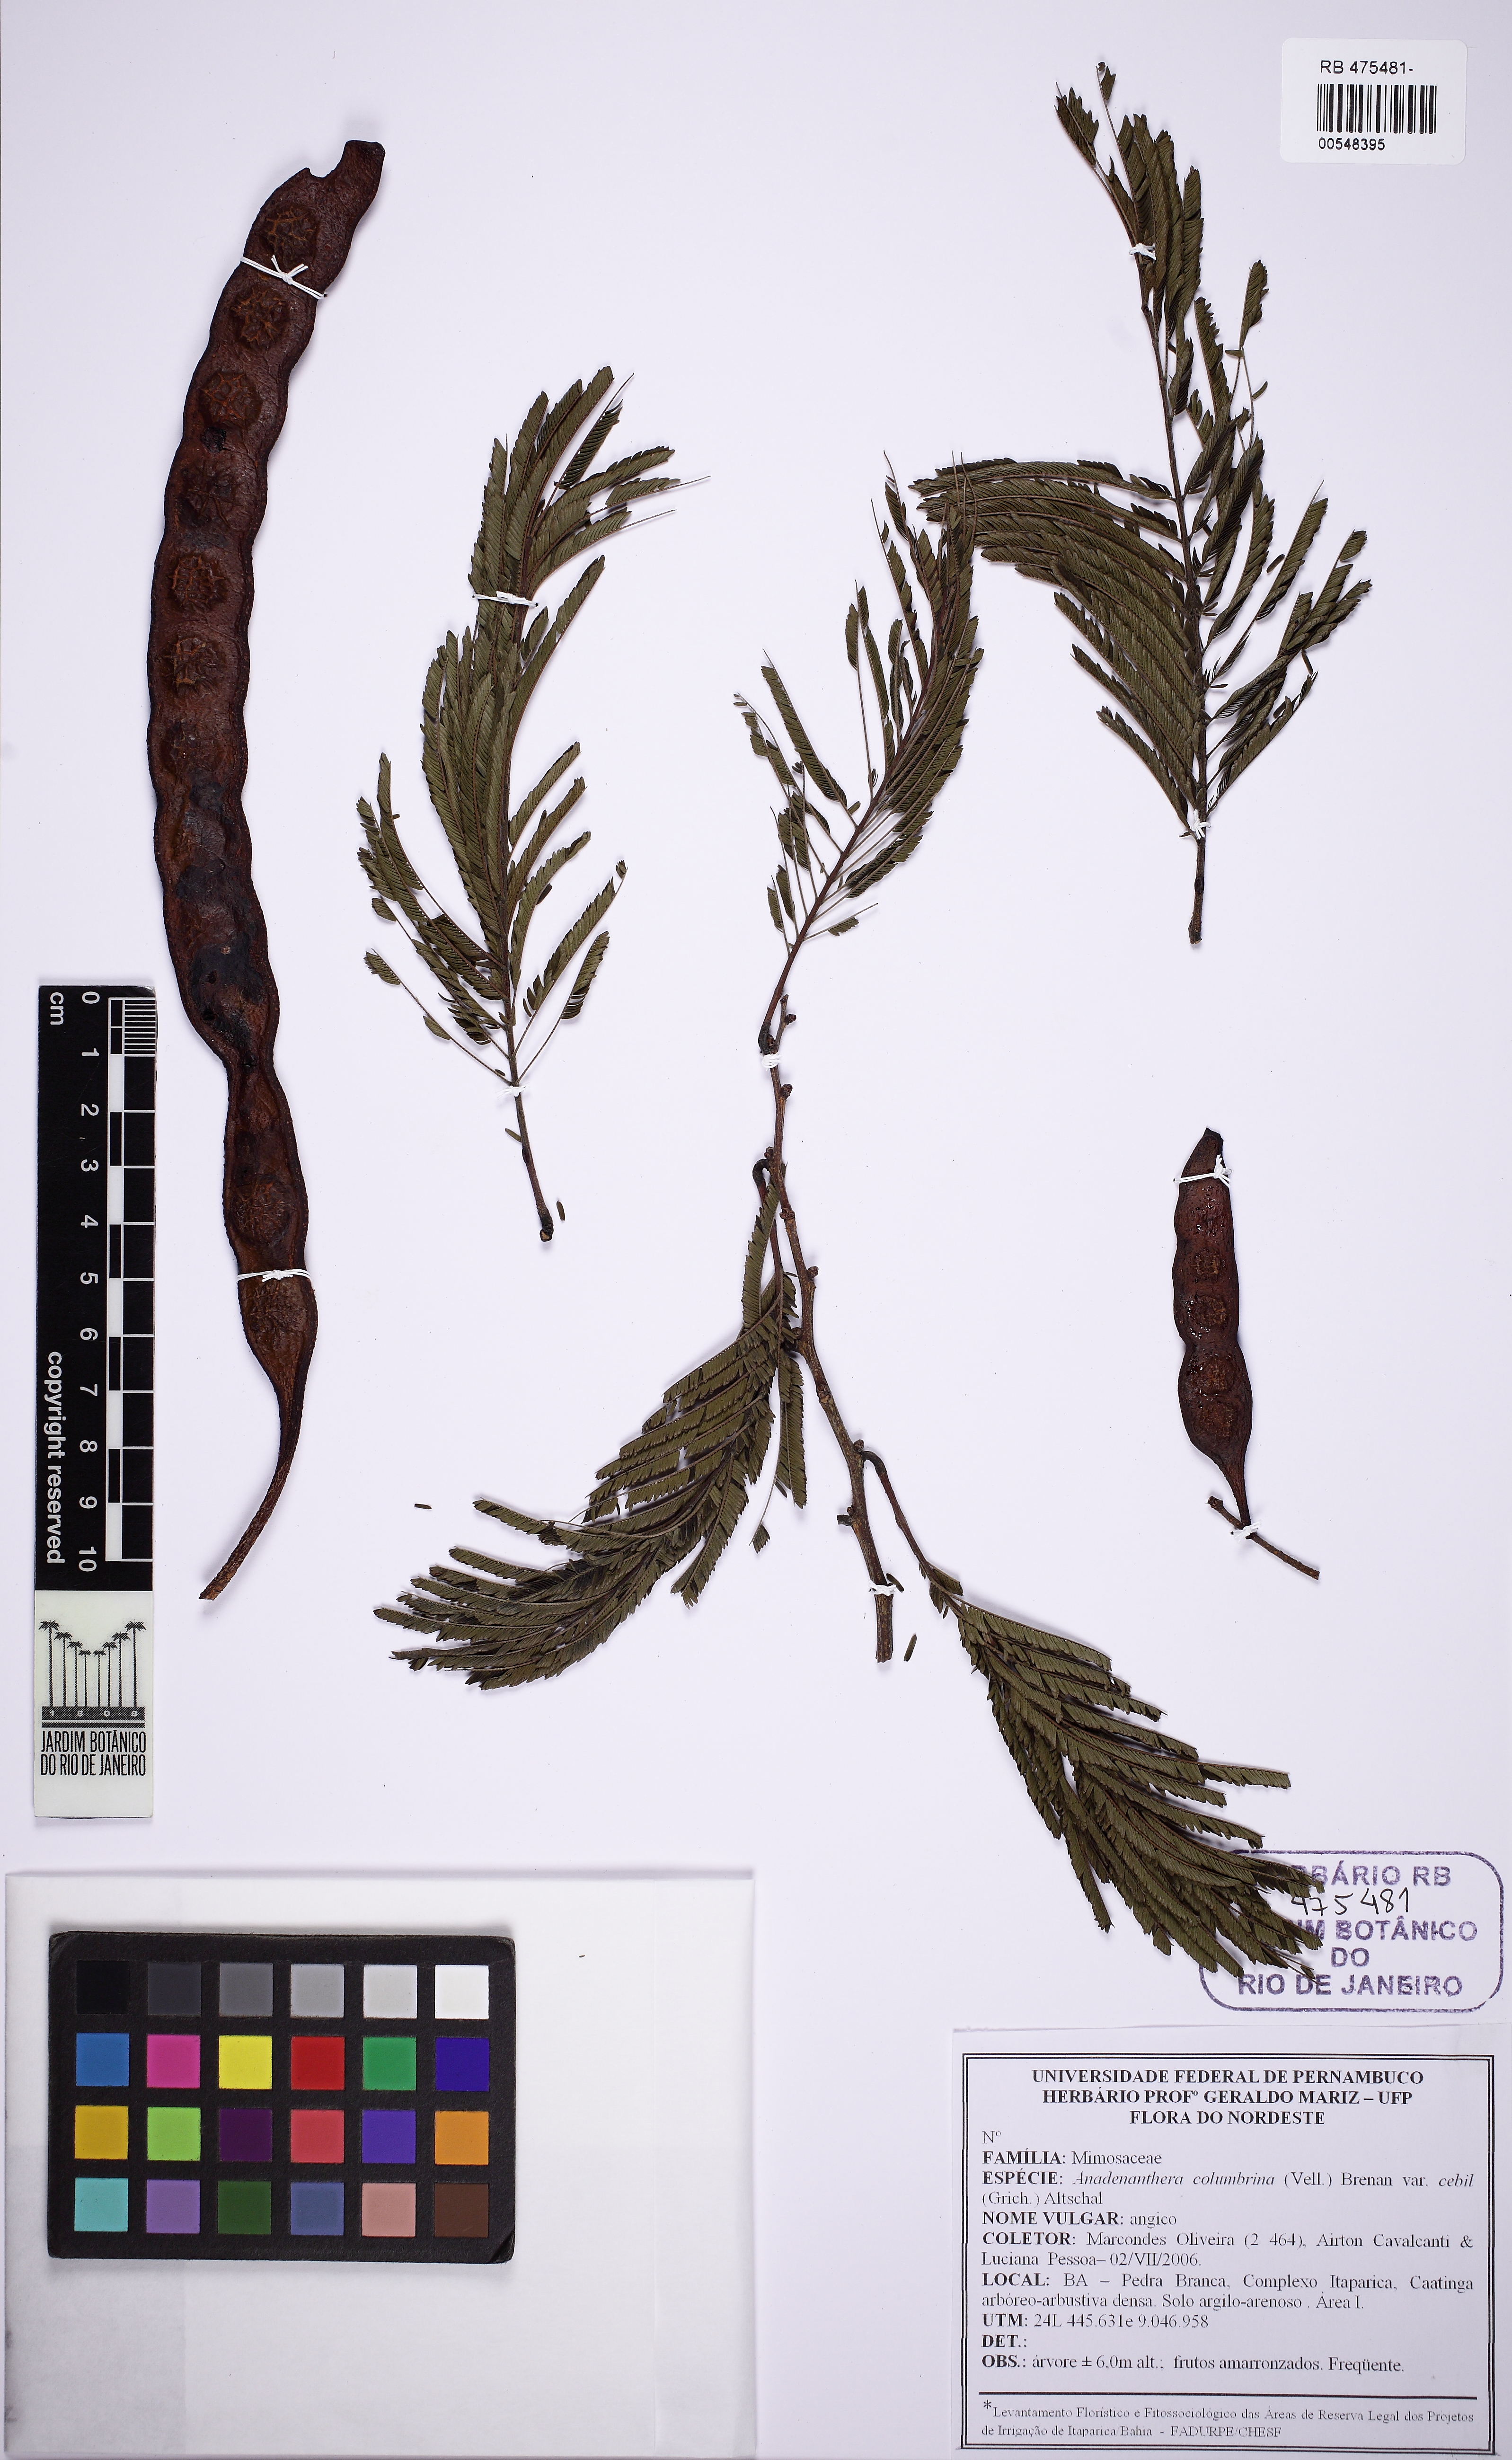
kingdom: Plantae
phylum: Tracheophyta
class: Magnoliopsida
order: Fabales
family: Fabaceae
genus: Anadenanthera
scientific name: Anadenanthera colubrina
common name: Curupay
